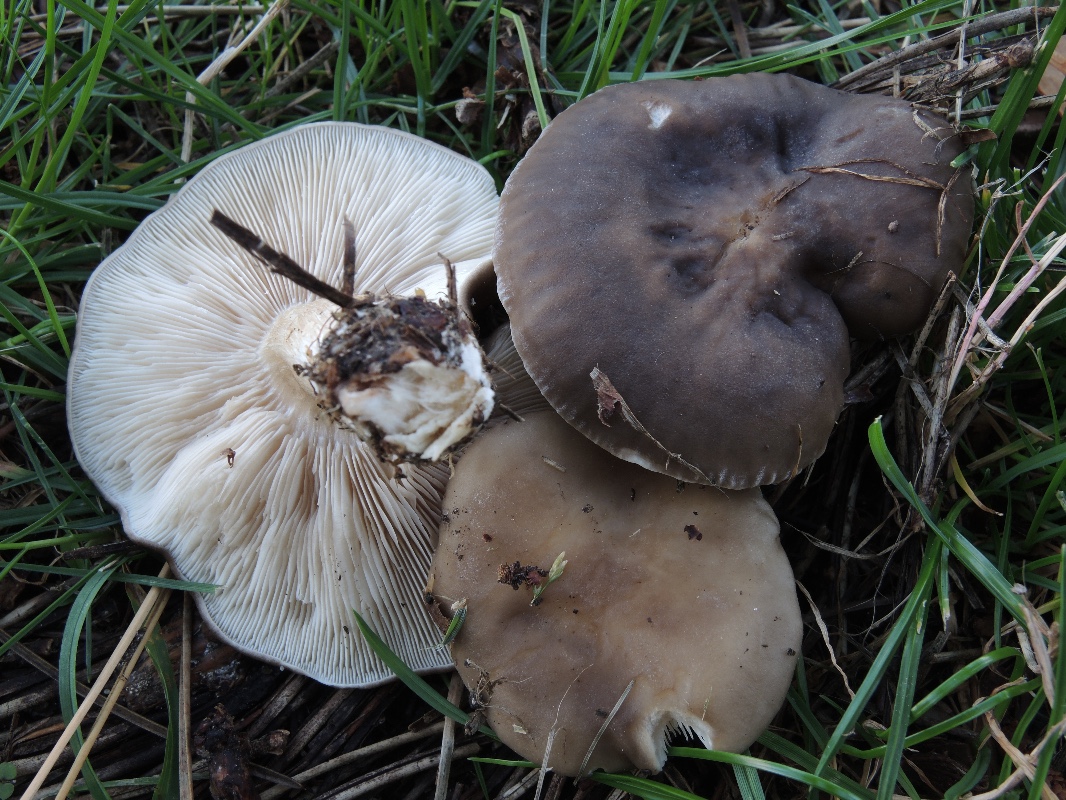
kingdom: Fungi
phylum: Basidiomycota
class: Agaricomycetes
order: Agaricales
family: Tricholomataceae
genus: Melanoleuca
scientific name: Melanoleuca diverticulata
